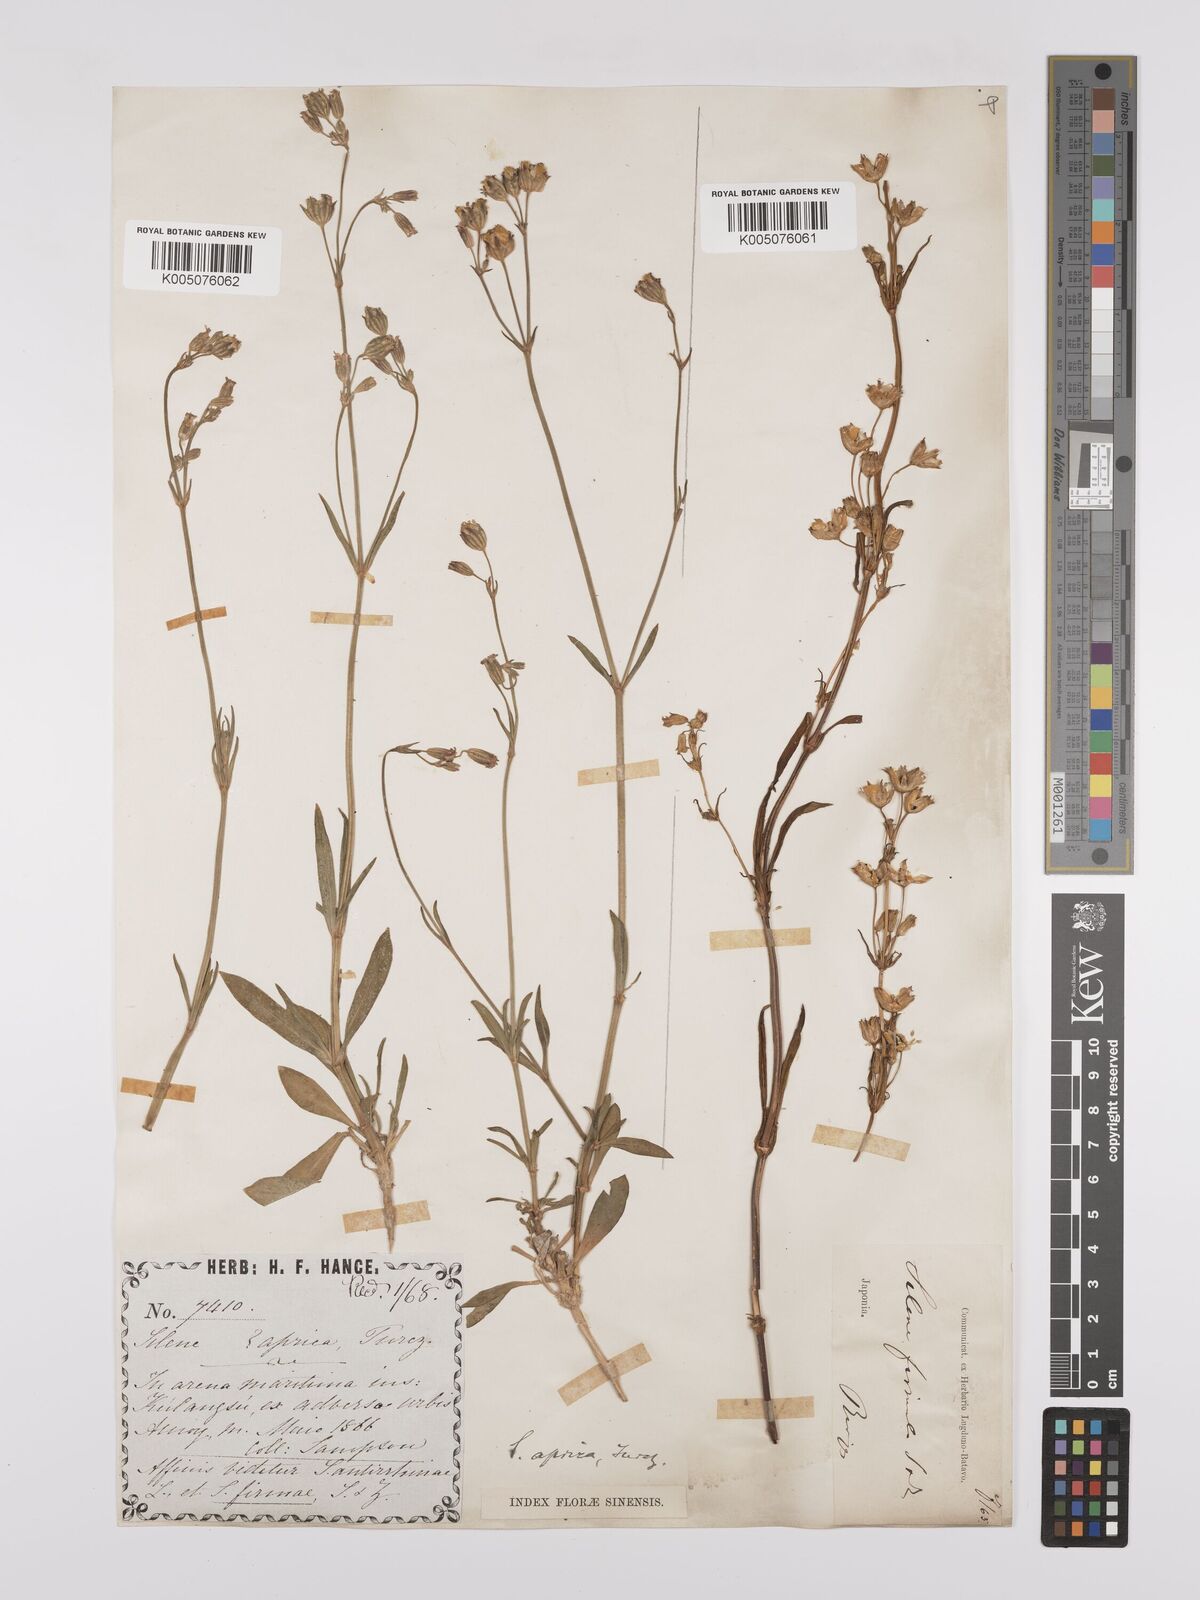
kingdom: Plantae
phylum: Tracheophyta
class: Magnoliopsida
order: Caryophyllales
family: Caryophyllaceae
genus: Silene
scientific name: Silene aprica
